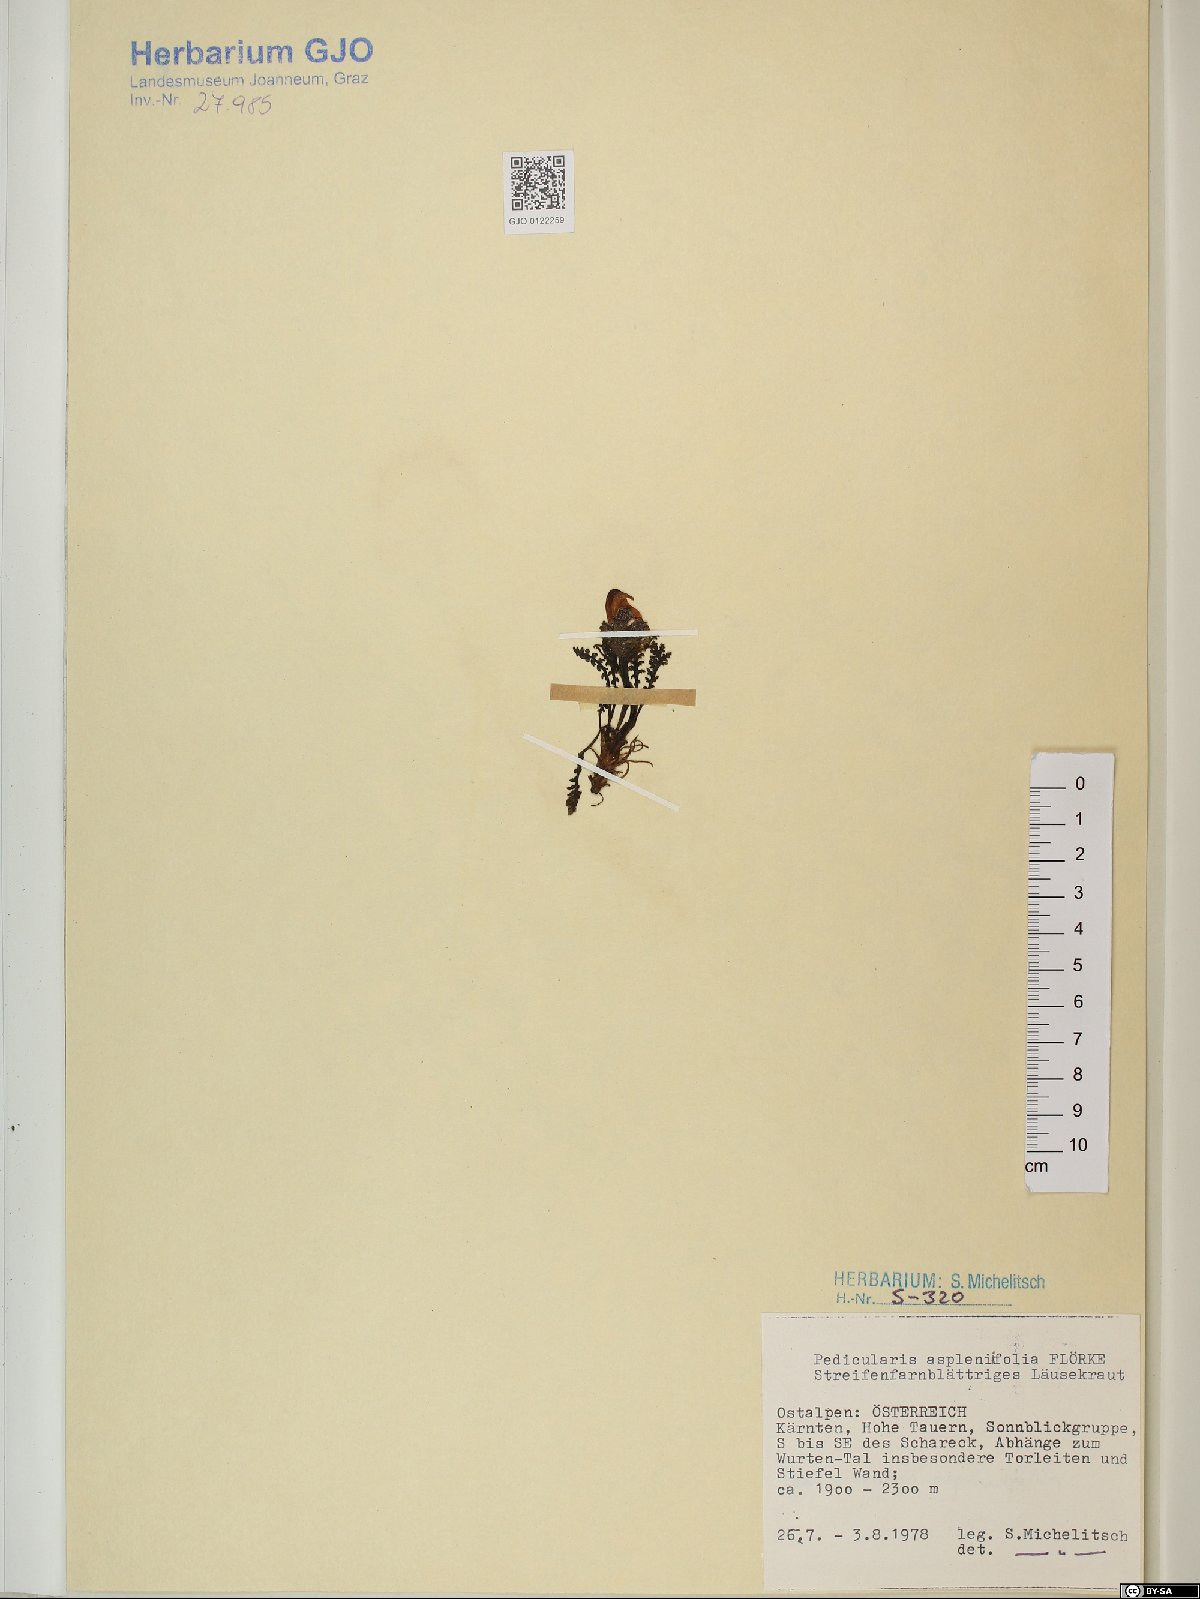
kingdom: Plantae
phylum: Tracheophyta
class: Magnoliopsida
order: Lamiales
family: Orobanchaceae
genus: Pedicularis
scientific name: Pedicularis asplenifolia
